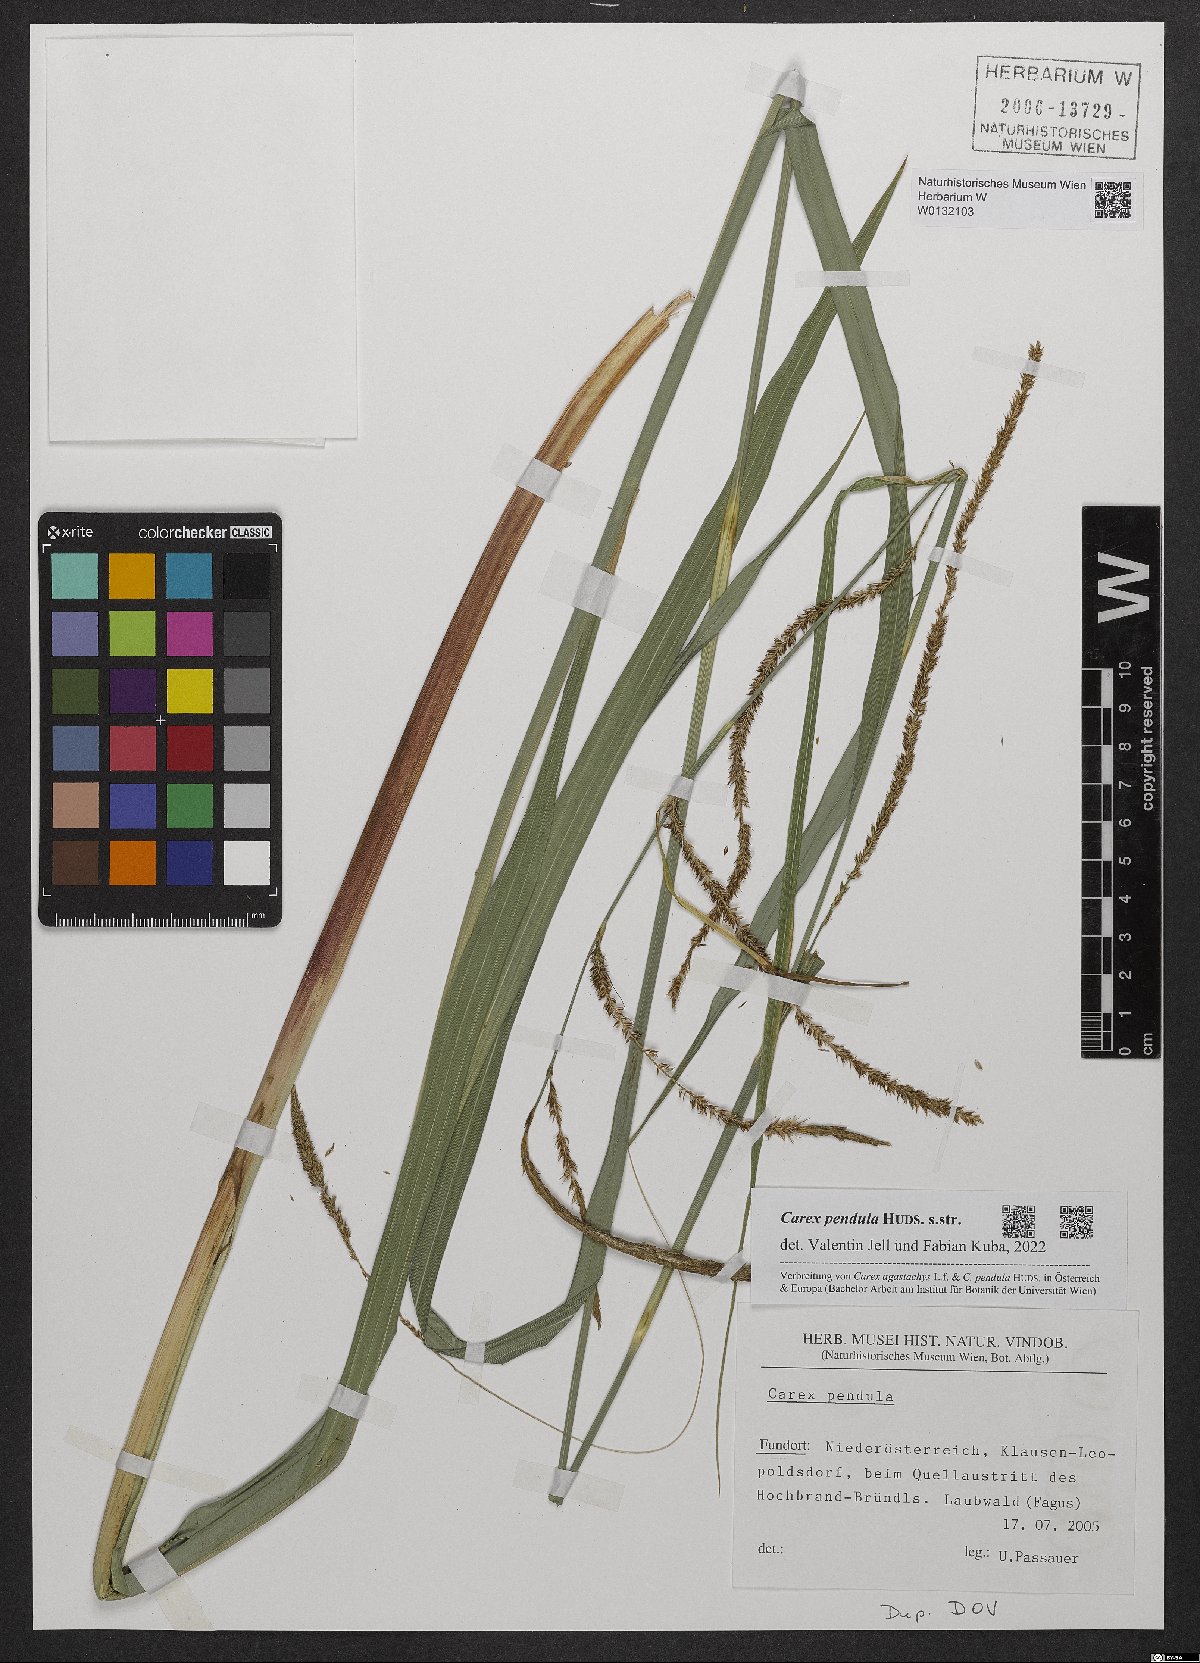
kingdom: Plantae
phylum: Tracheophyta
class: Liliopsida
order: Poales
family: Cyperaceae
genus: Carex
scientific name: Carex pendula
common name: Pendulous sedge
